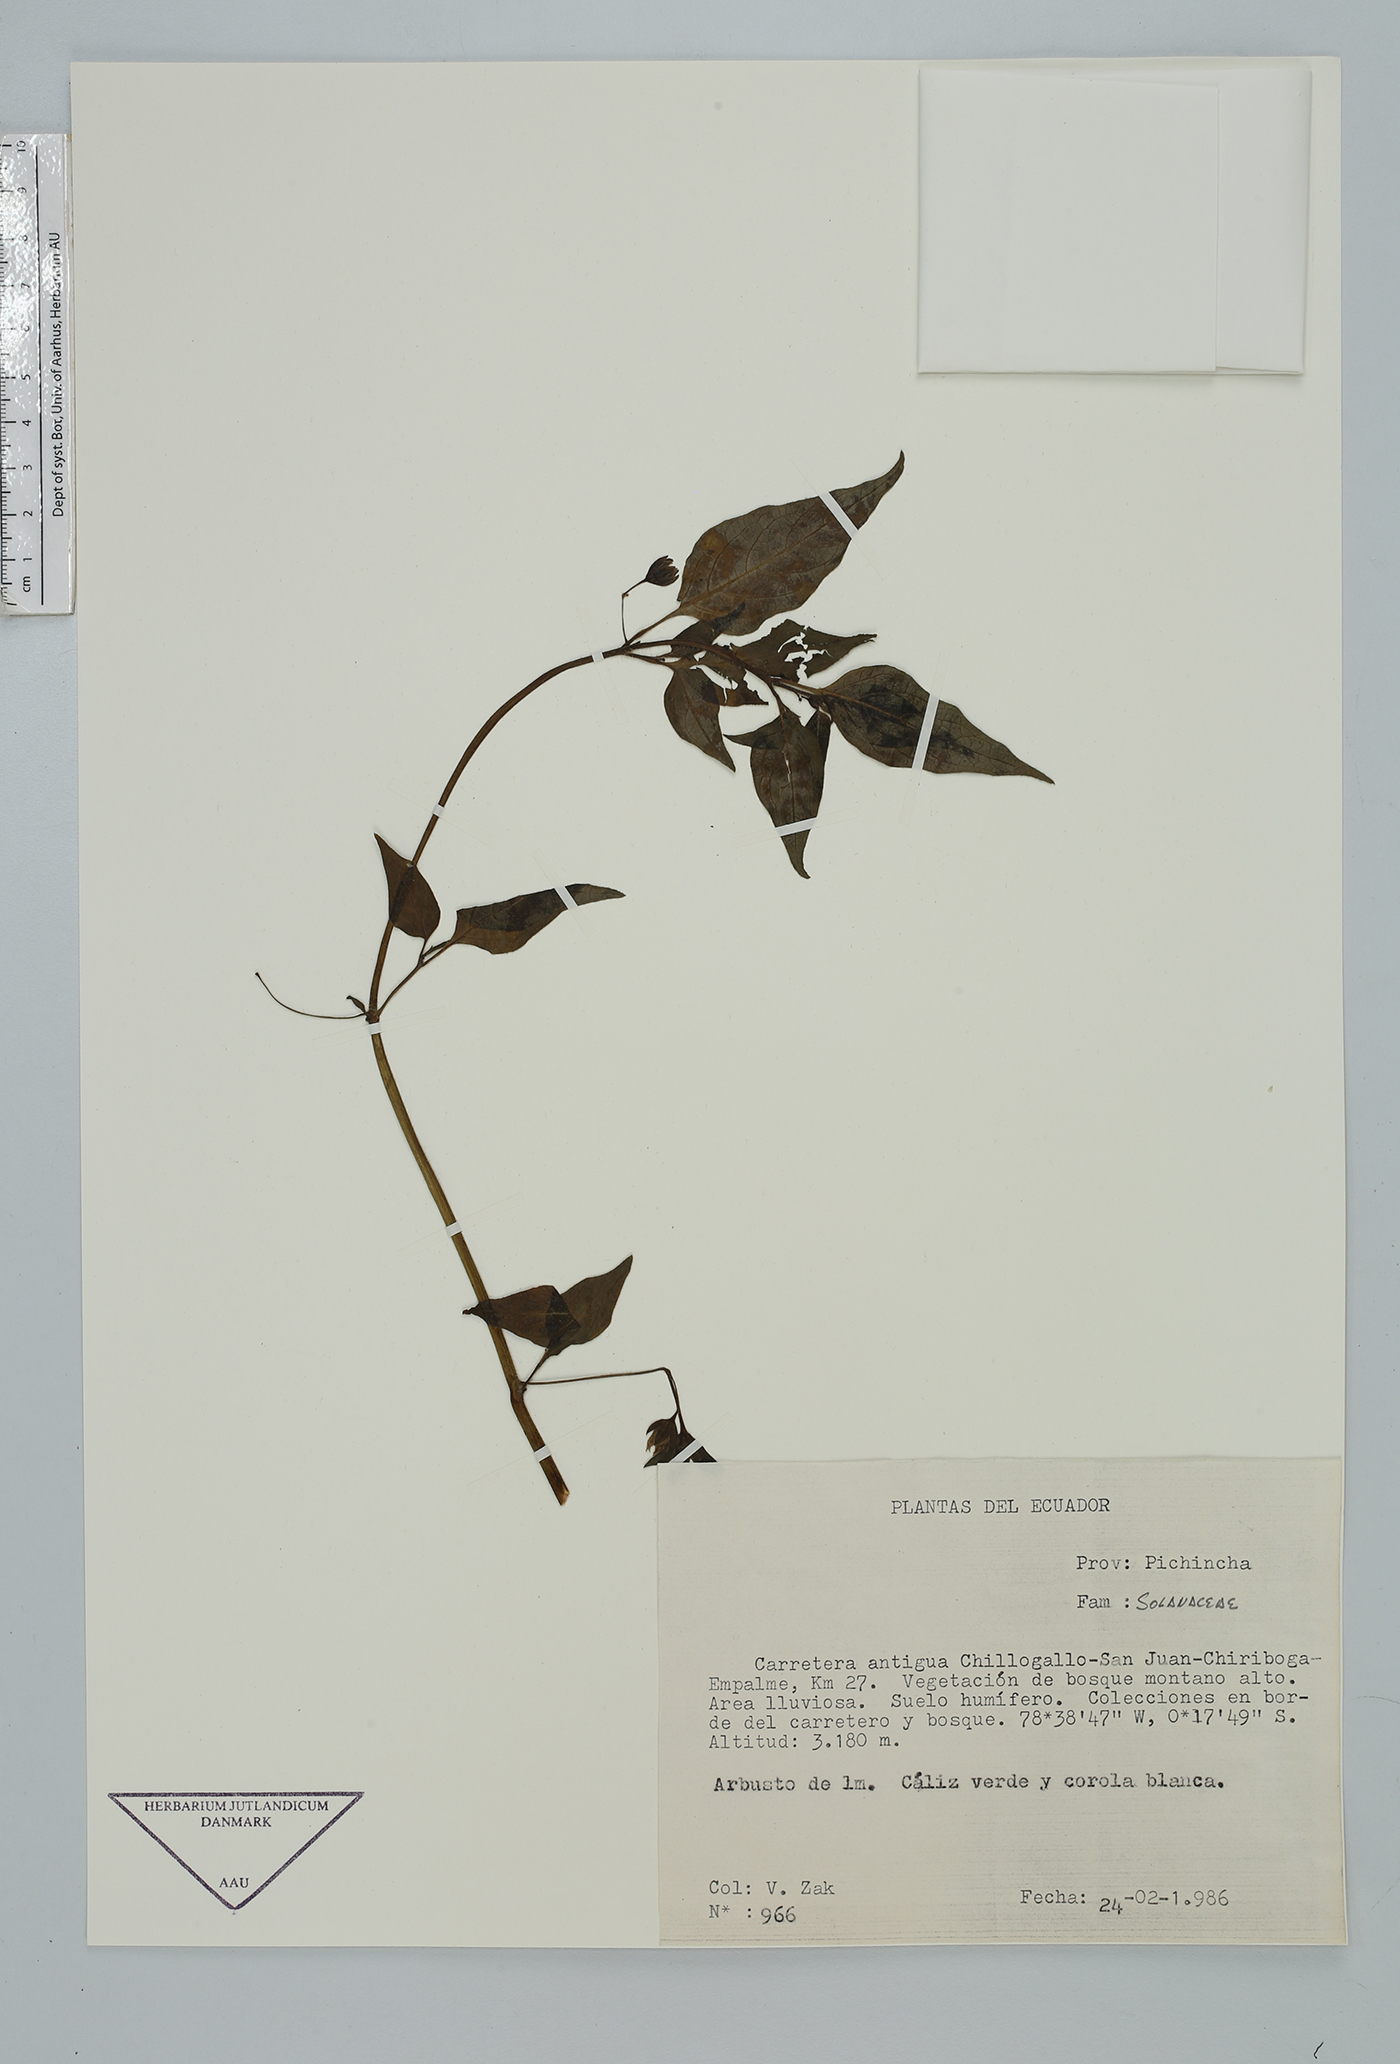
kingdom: Plantae
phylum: Tracheophyta
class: Magnoliopsida
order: Solanales
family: Solanaceae
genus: Jaltomata
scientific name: Jaltomata
